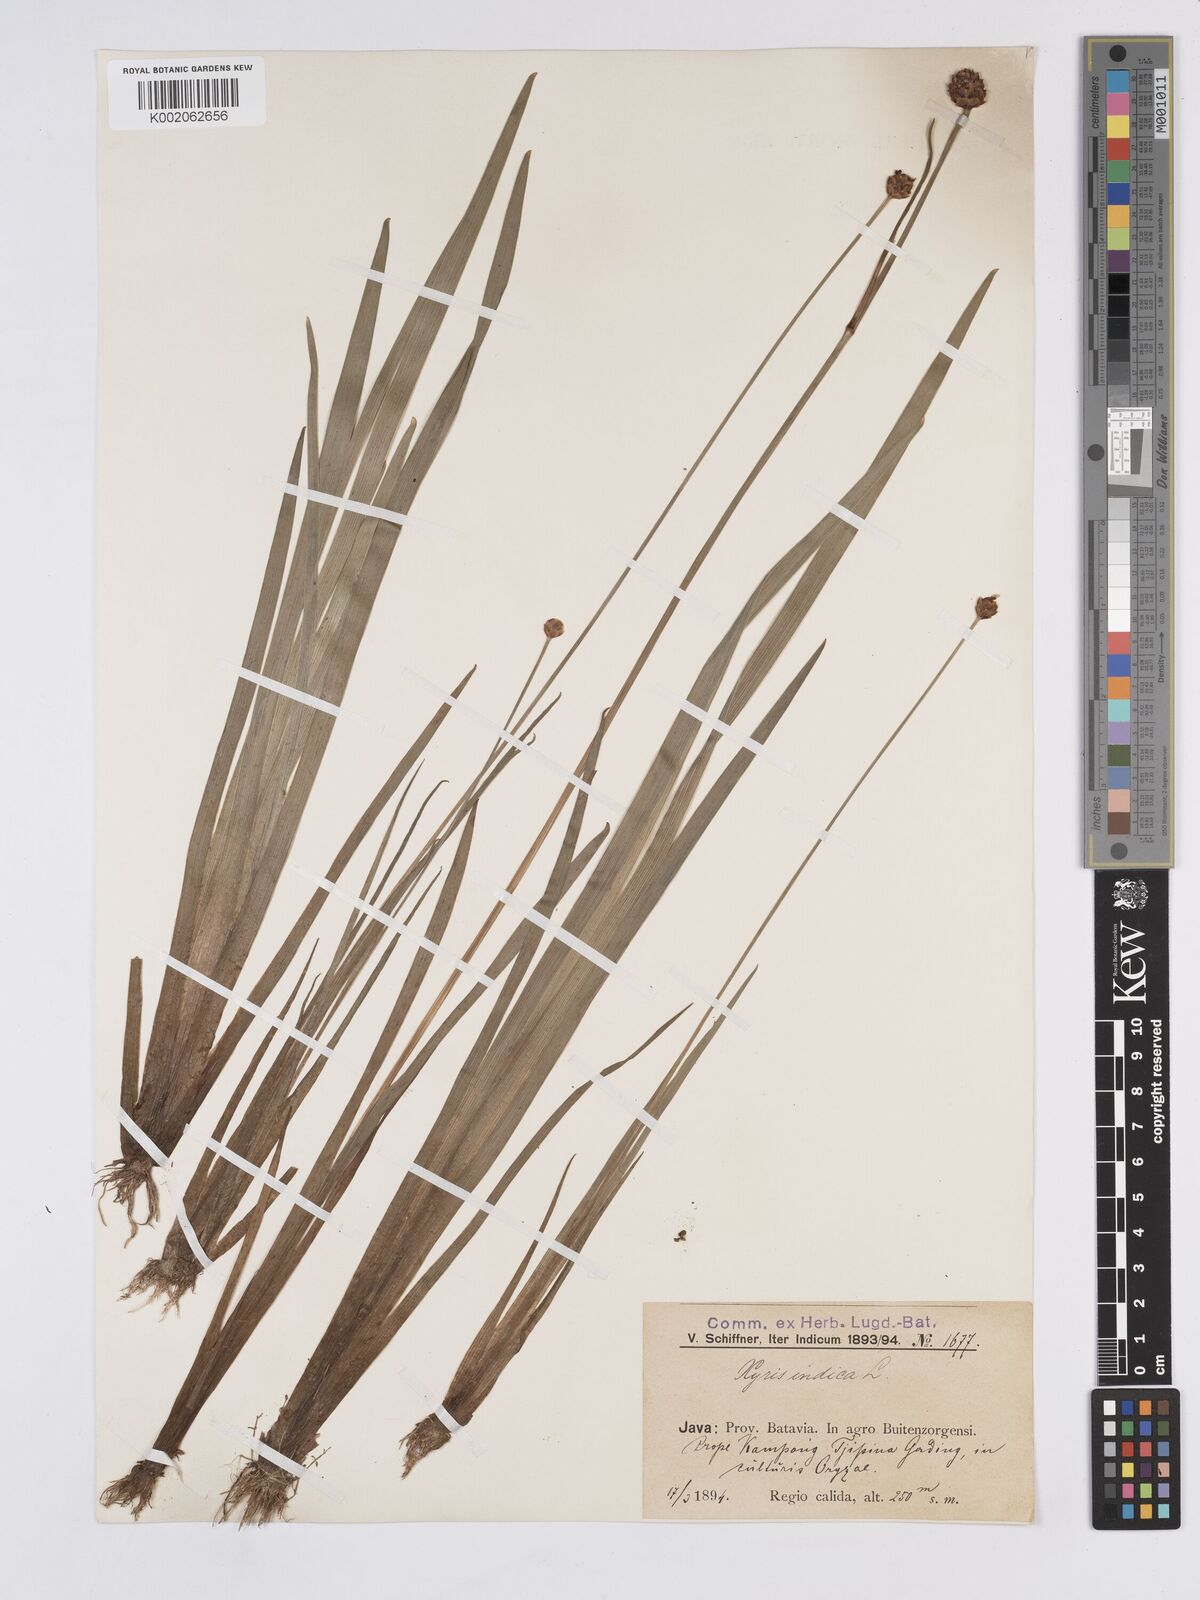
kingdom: Plantae
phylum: Tracheophyta
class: Liliopsida
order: Poales
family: Xyridaceae
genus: Xyris
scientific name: Xyris indica
